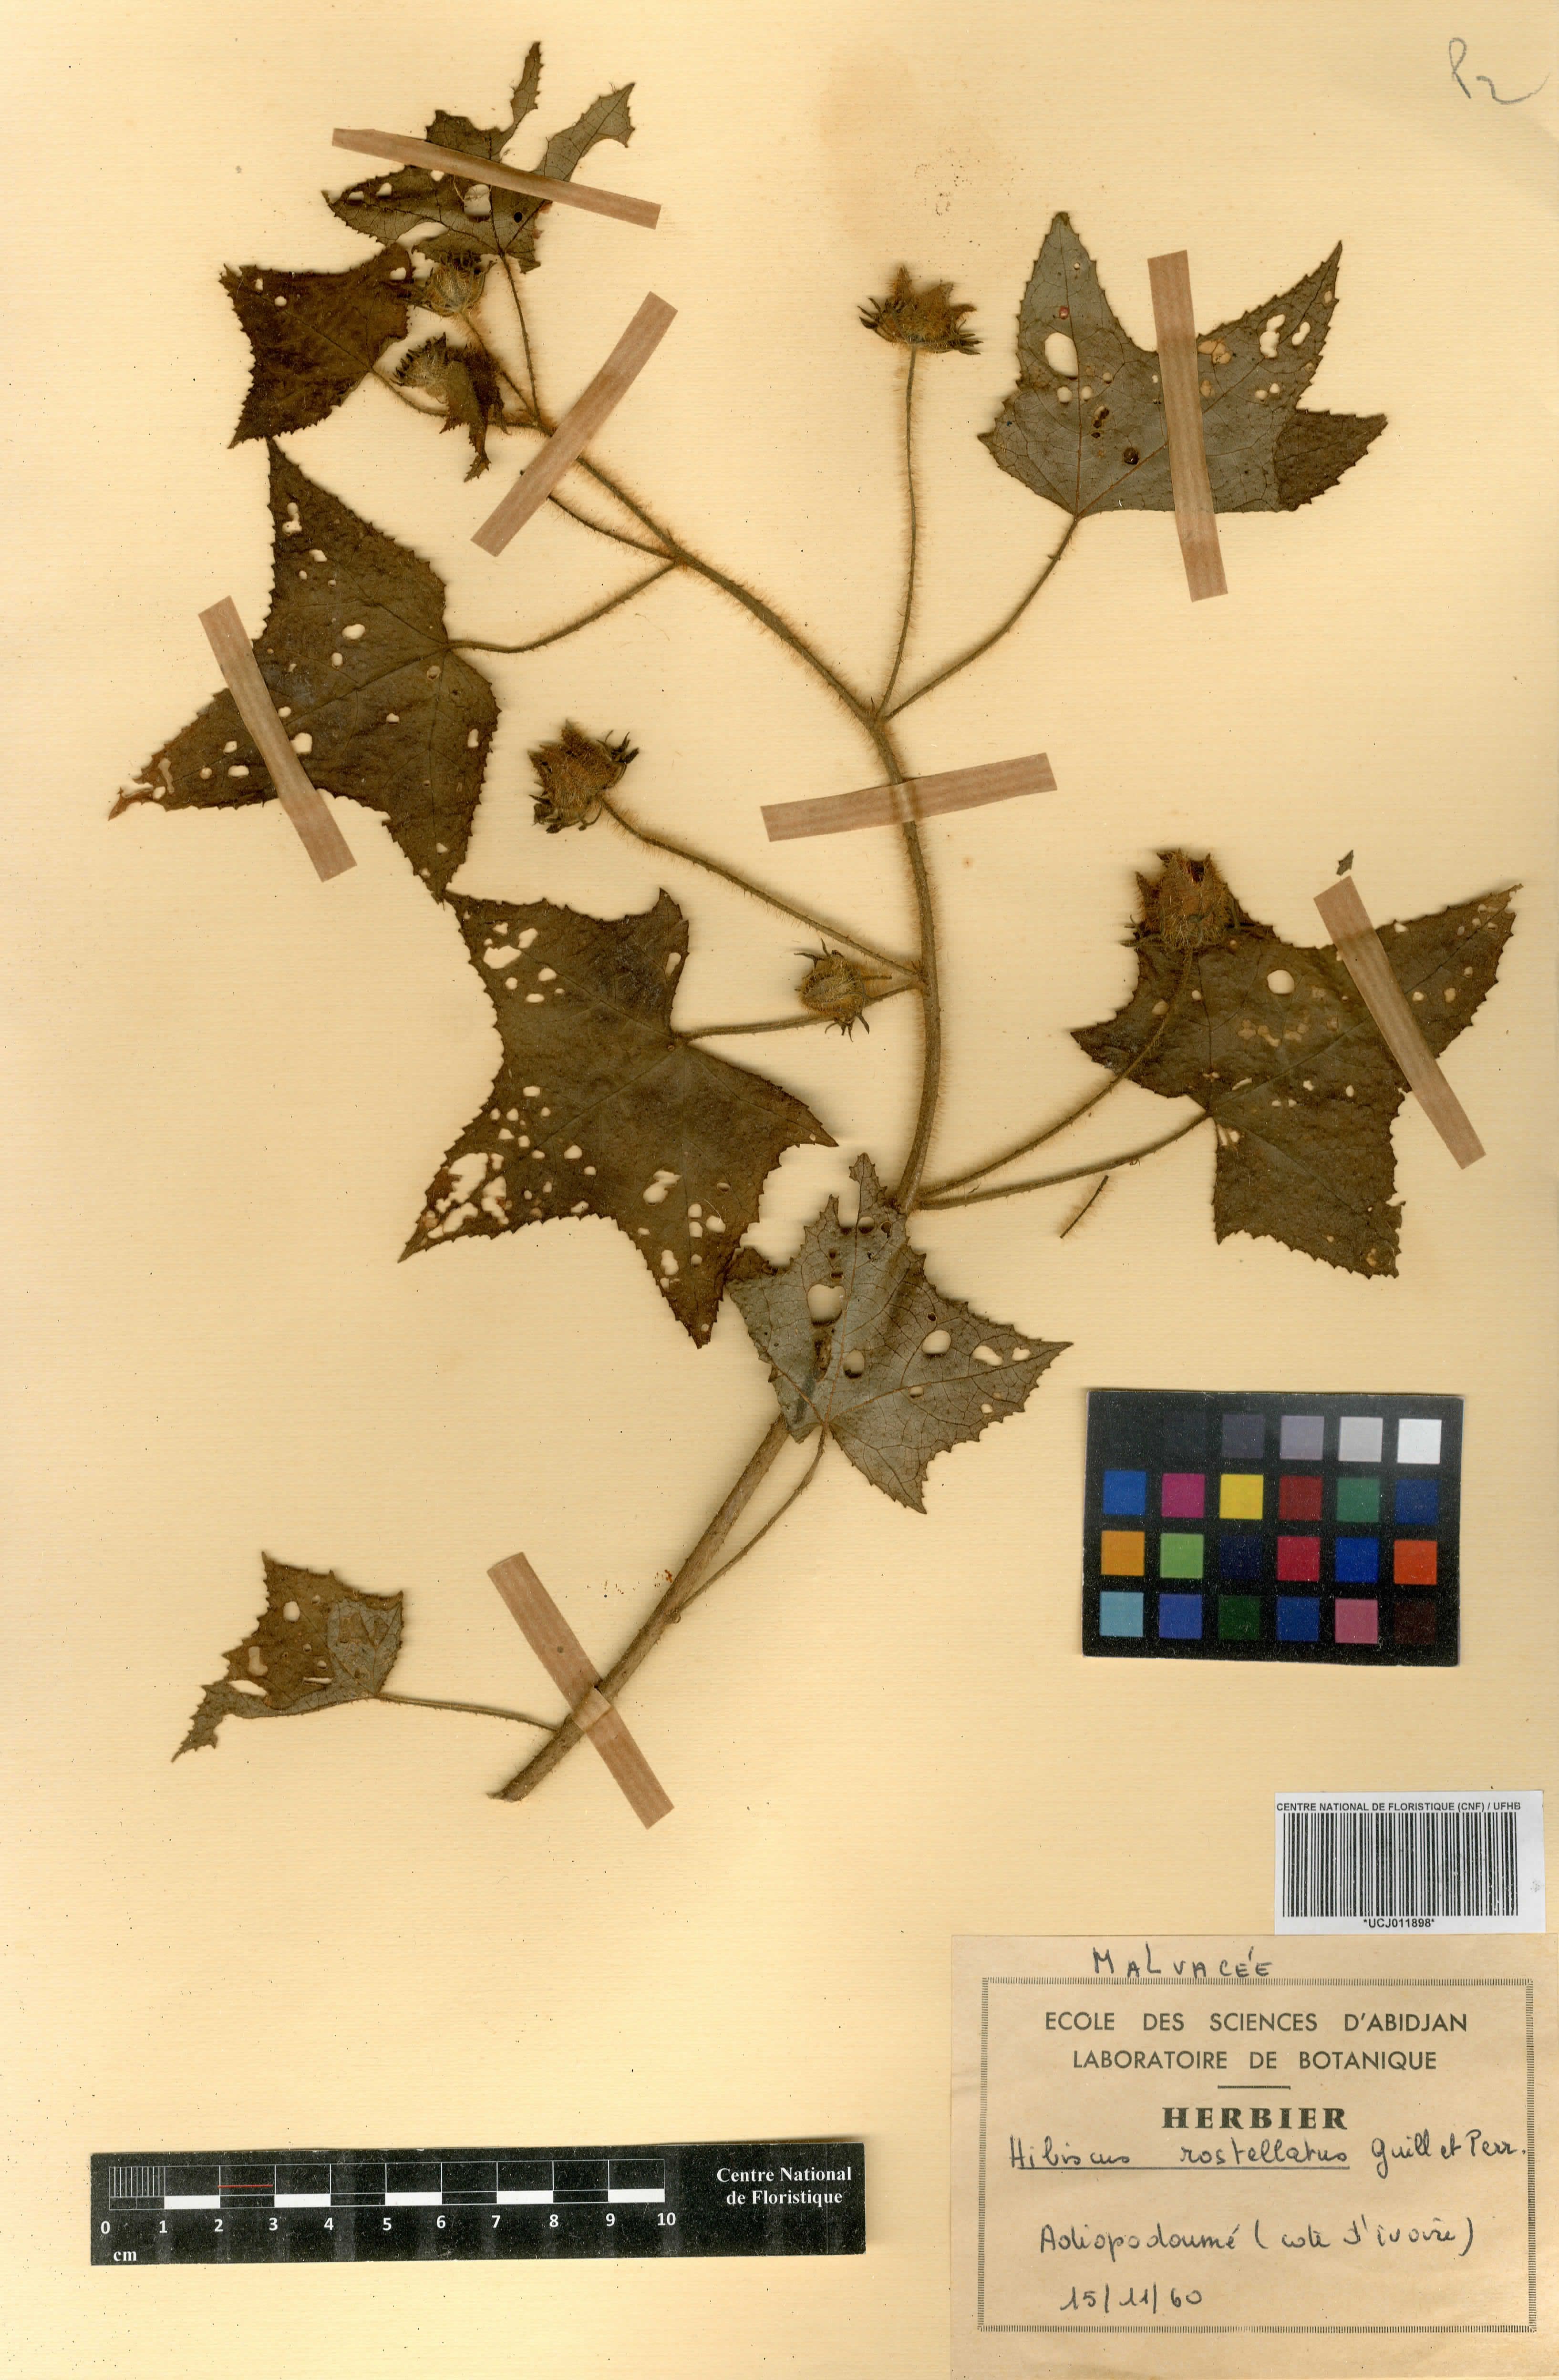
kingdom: Plantae
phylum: Tracheophyta
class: Magnoliopsida
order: Malvales
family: Malvaceae
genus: Hibiscus
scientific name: Hibiscus rostellatus
